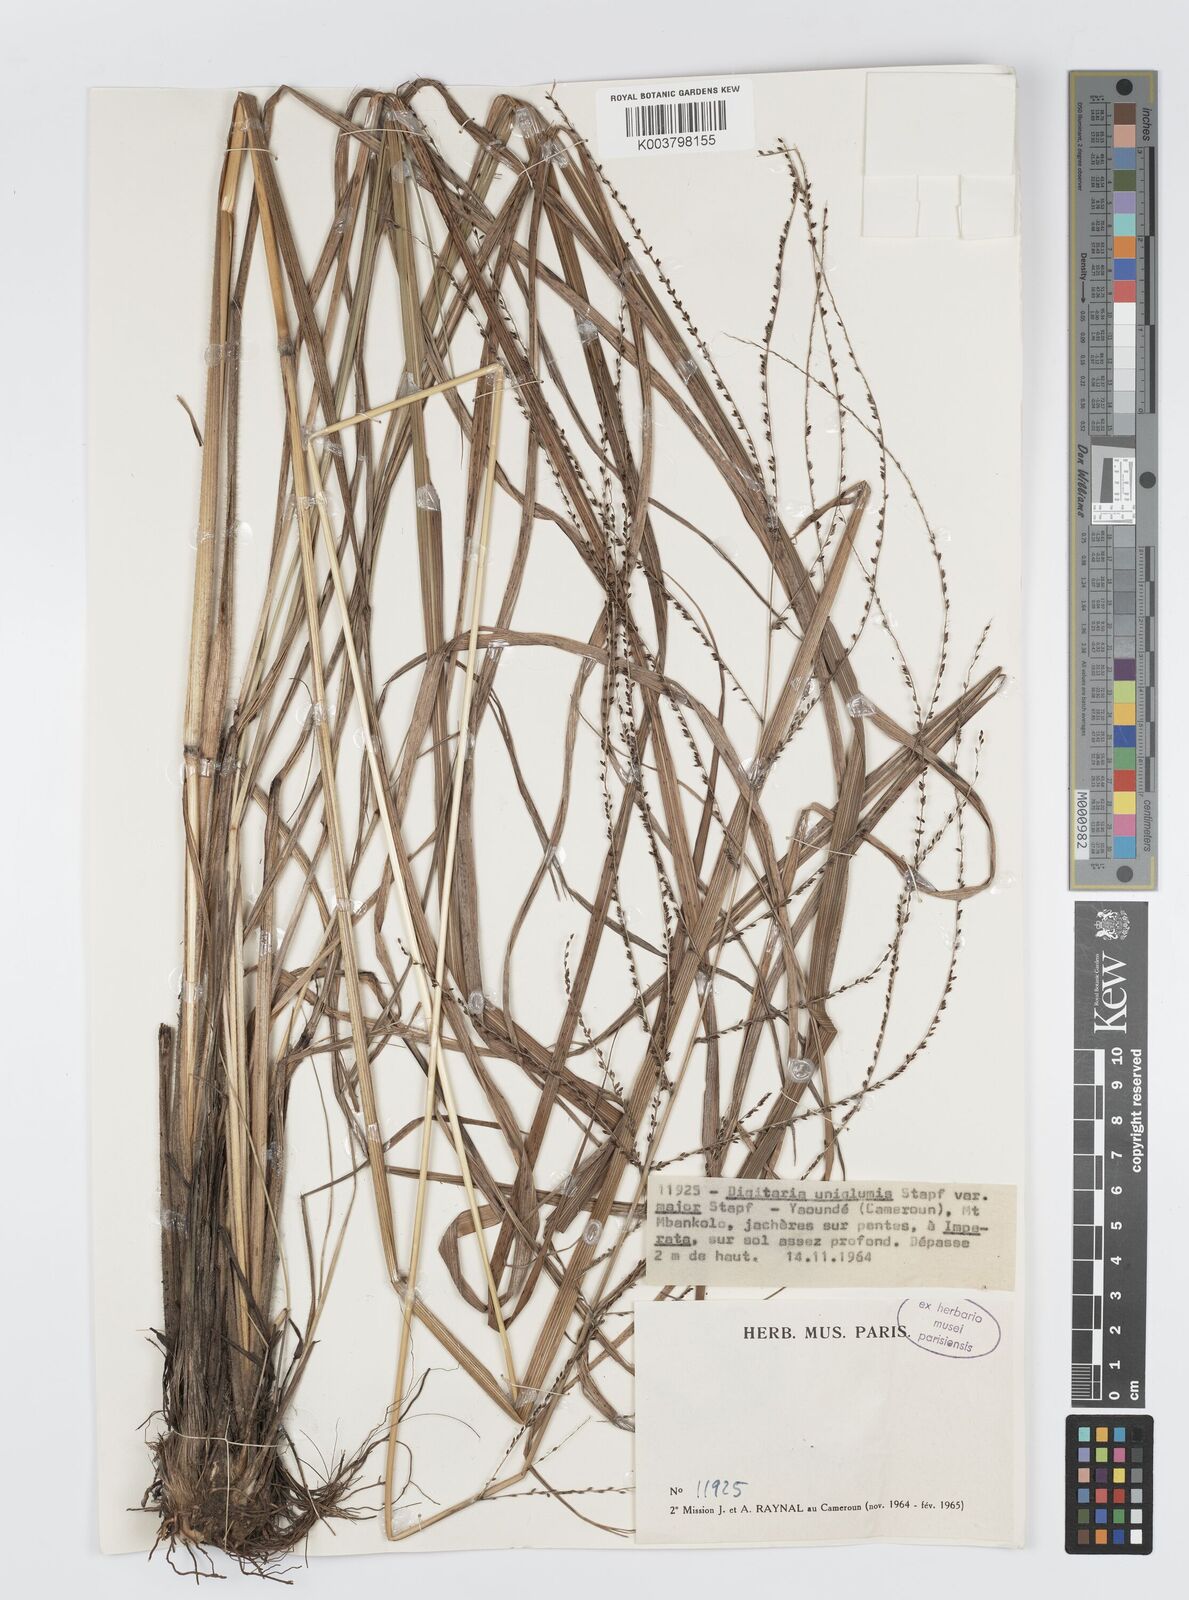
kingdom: Plantae
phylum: Tracheophyta
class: Liliopsida
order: Poales
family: Poaceae
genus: Digitaria
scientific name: Digitaria diagonalis
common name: Brown-seed finger grass
